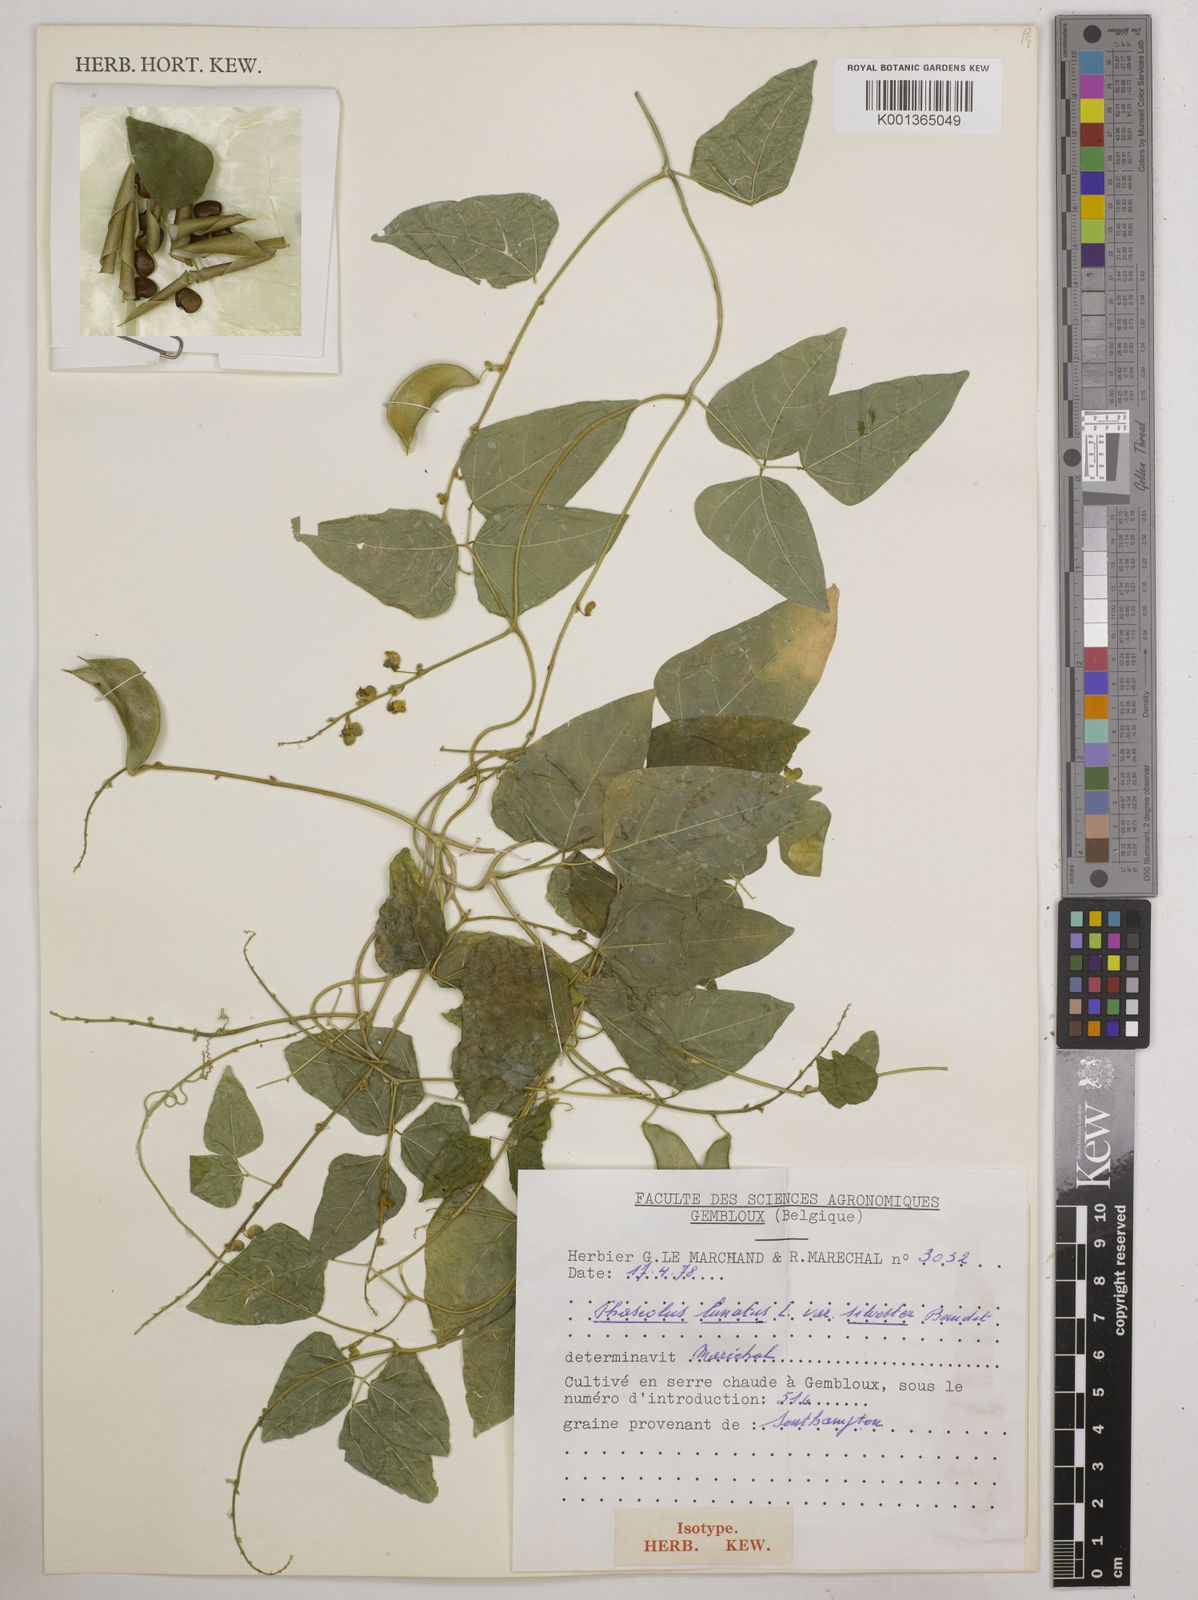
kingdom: Plantae
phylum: Tracheophyta
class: Magnoliopsida
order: Fabales
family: Fabaceae
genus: Phaseolus
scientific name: Phaseolus lunatus
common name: Sieva bean
